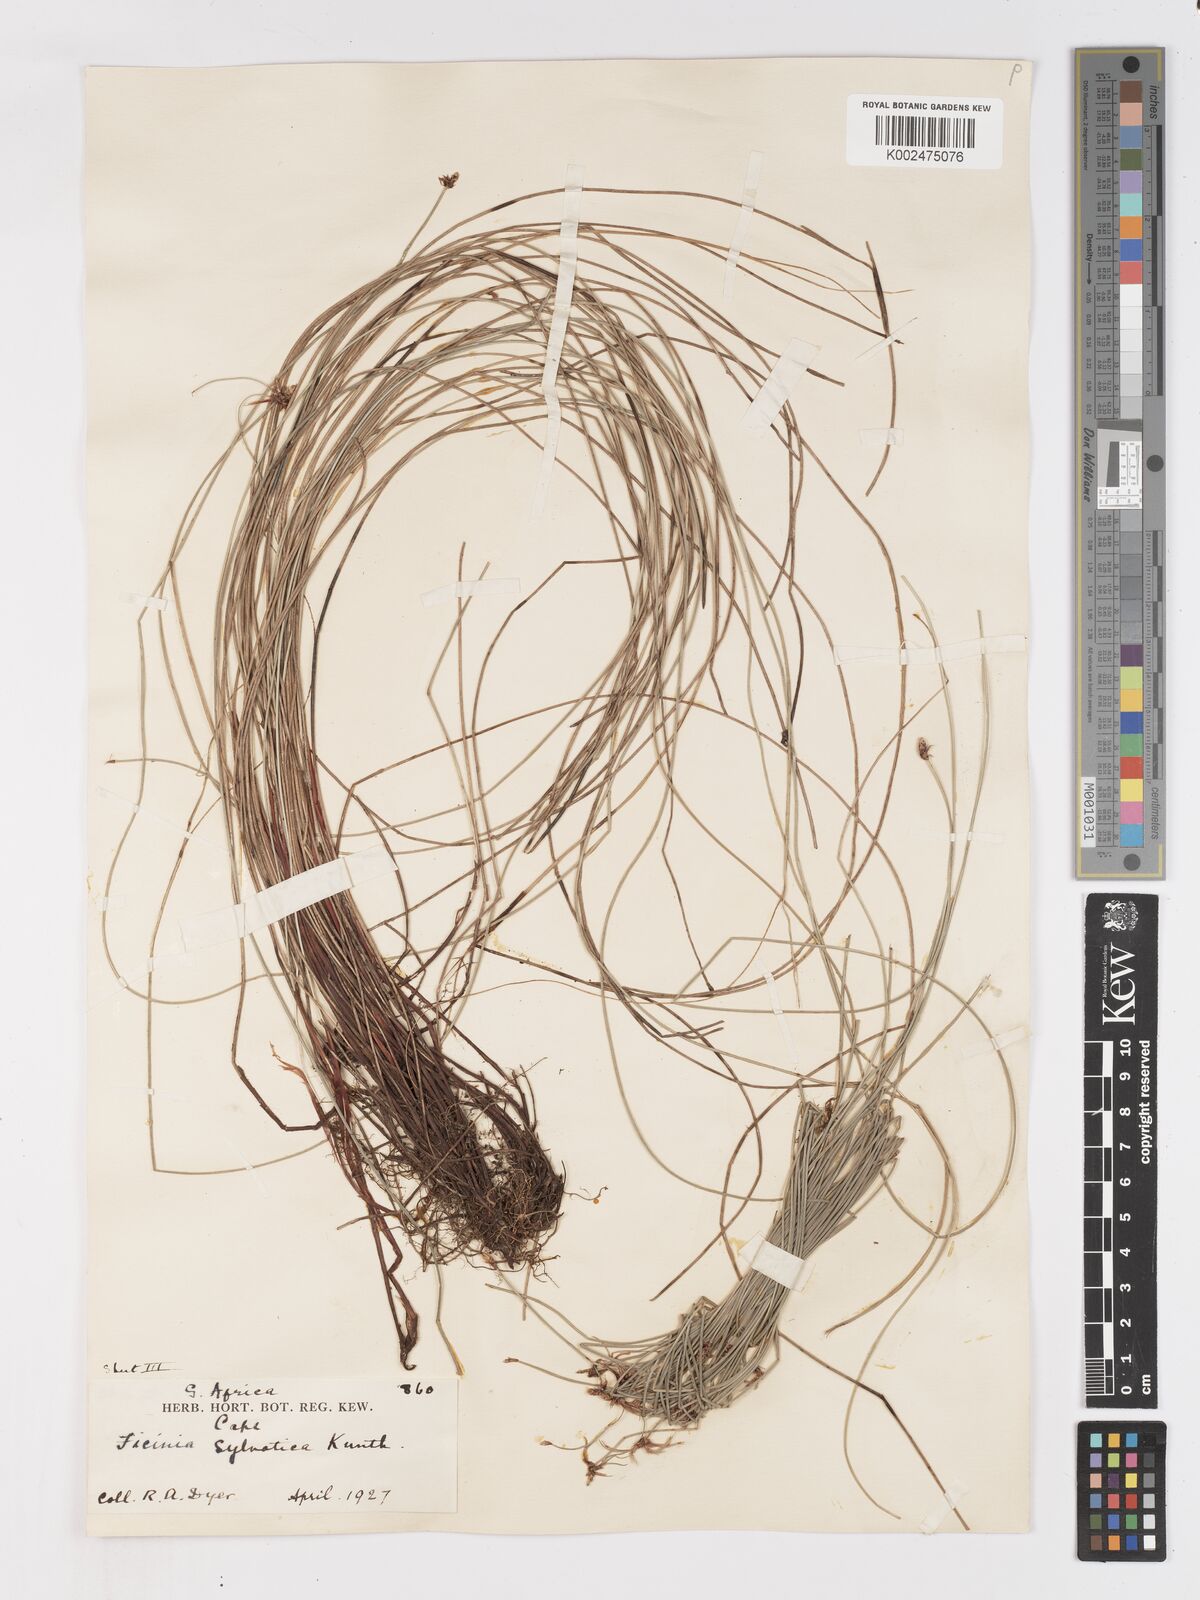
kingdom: Plantae
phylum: Tracheophyta
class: Liliopsida
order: Poales
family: Cyperaceae
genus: Ficinia
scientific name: Ficinia sylvatica
